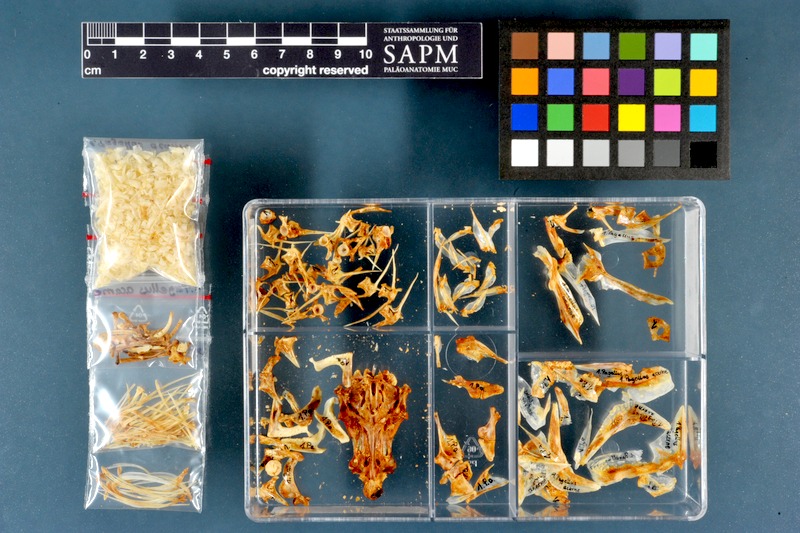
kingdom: Animalia
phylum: Chordata
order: Perciformes
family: Sparidae
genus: Pagellus
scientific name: Pagellus acarne
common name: Axillary sea-bream
